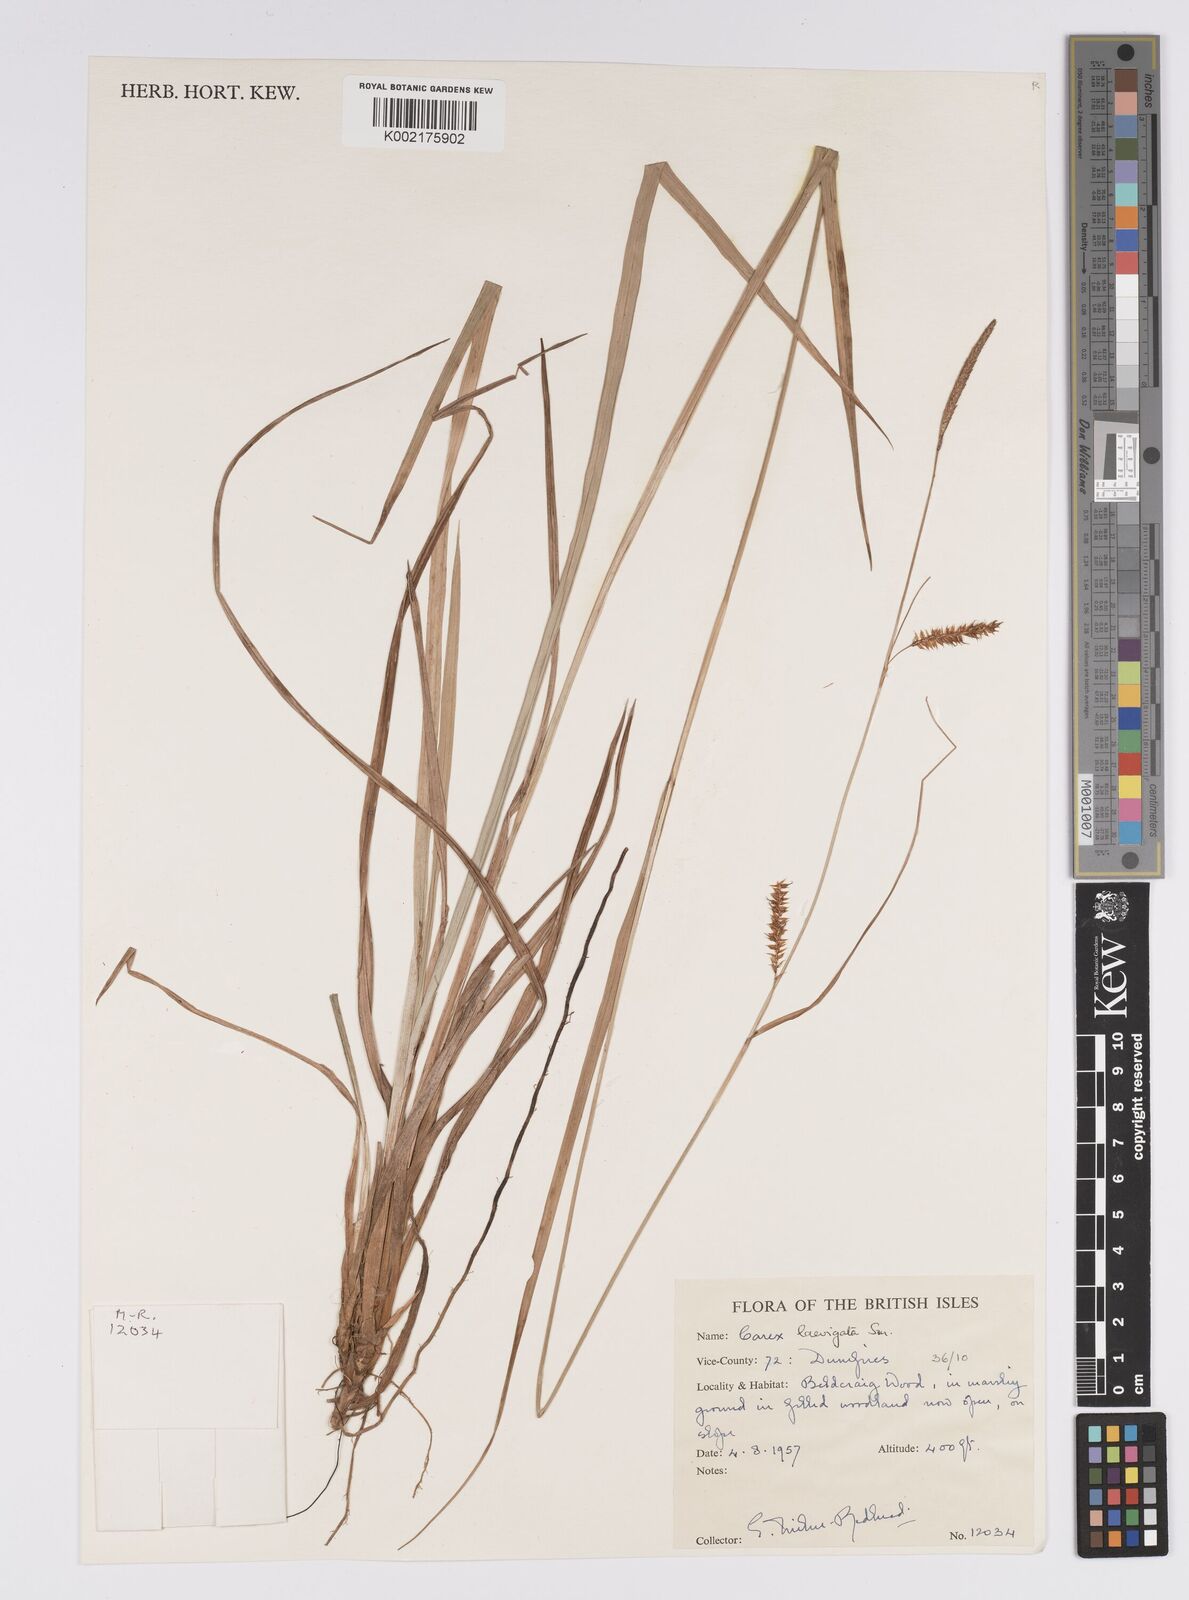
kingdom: Plantae
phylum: Tracheophyta
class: Liliopsida
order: Poales
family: Cyperaceae
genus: Carex
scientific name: Carex laevigata
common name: Smooth-stalked sedge
